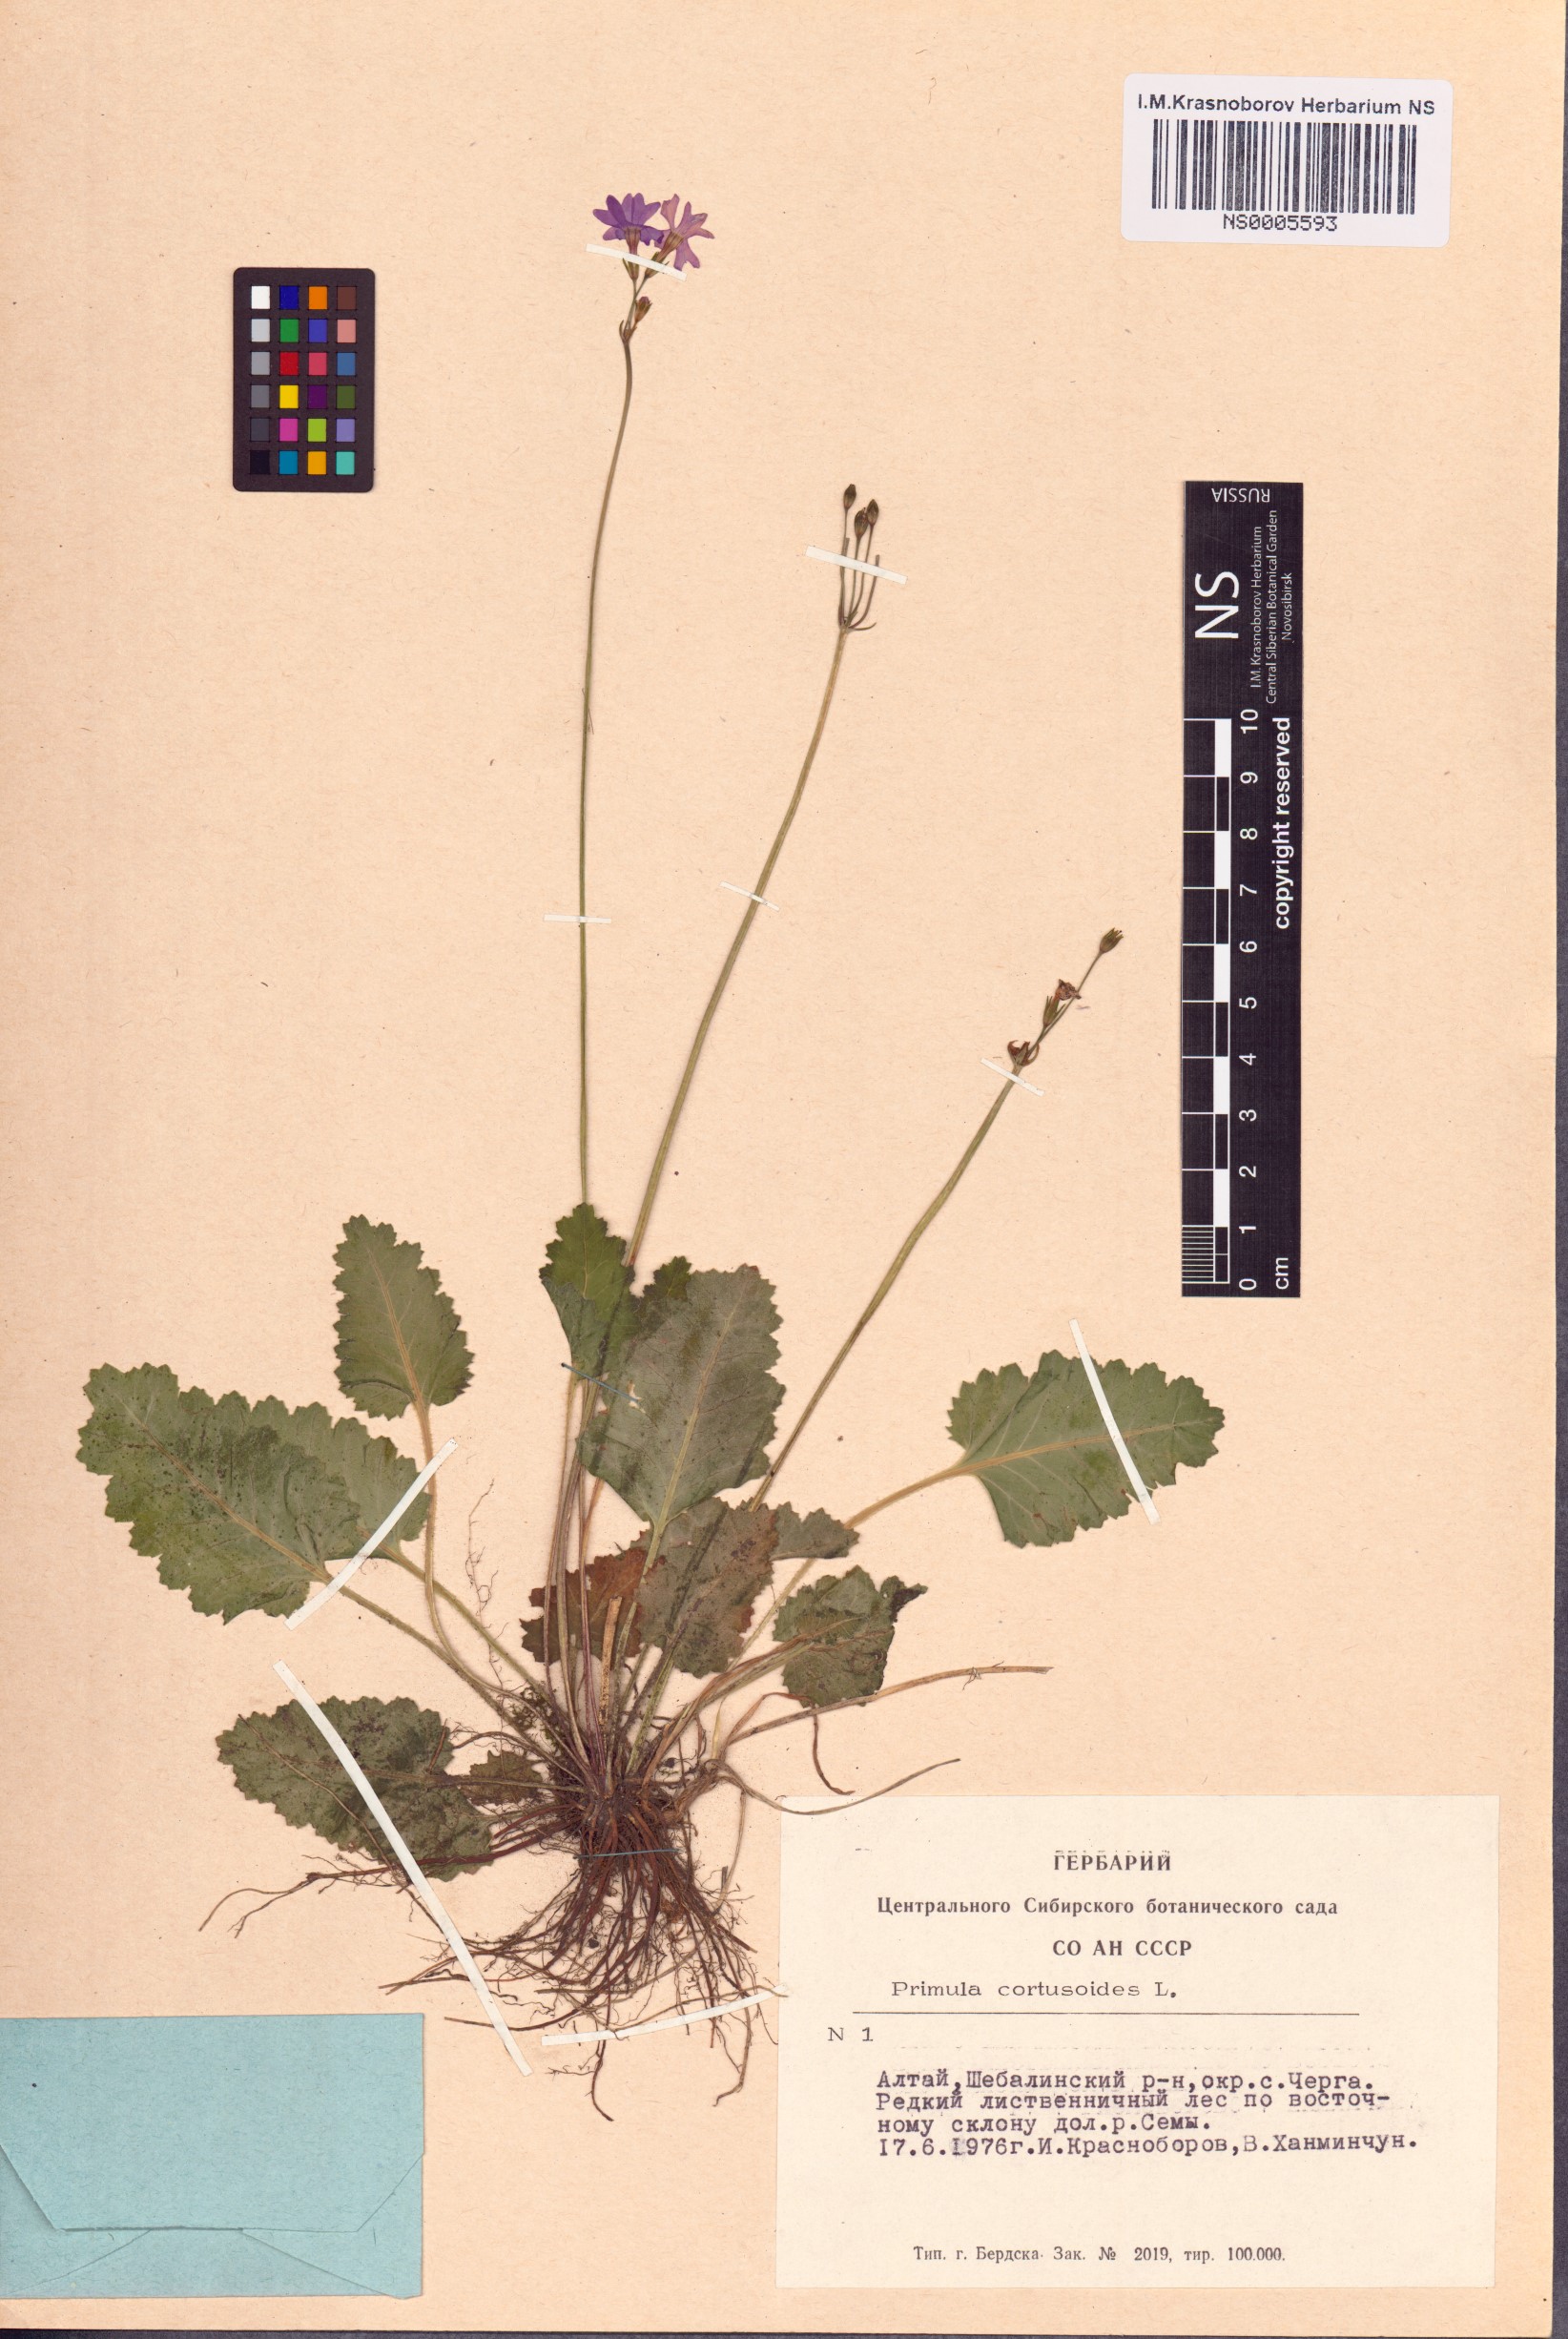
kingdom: Plantae
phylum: Tracheophyta
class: Magnoliopsida
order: Ericales
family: Primulaceae
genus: Primula
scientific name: Primula cortusoides
